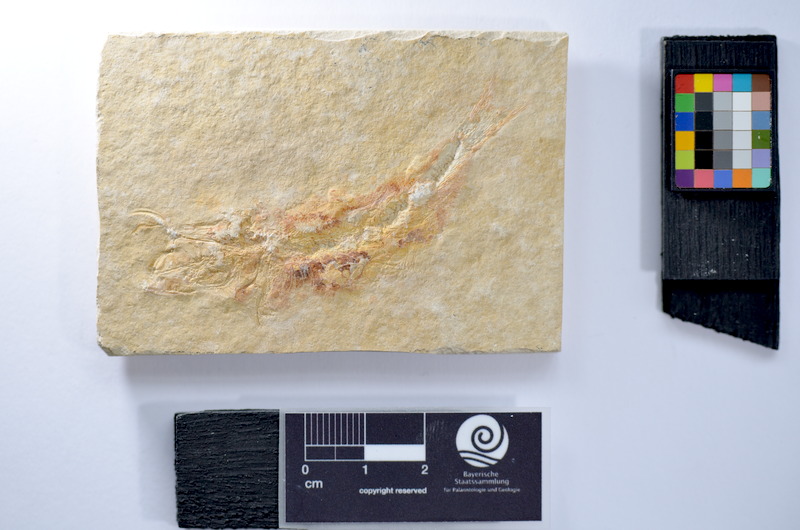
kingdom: Animalia
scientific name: Animalia
